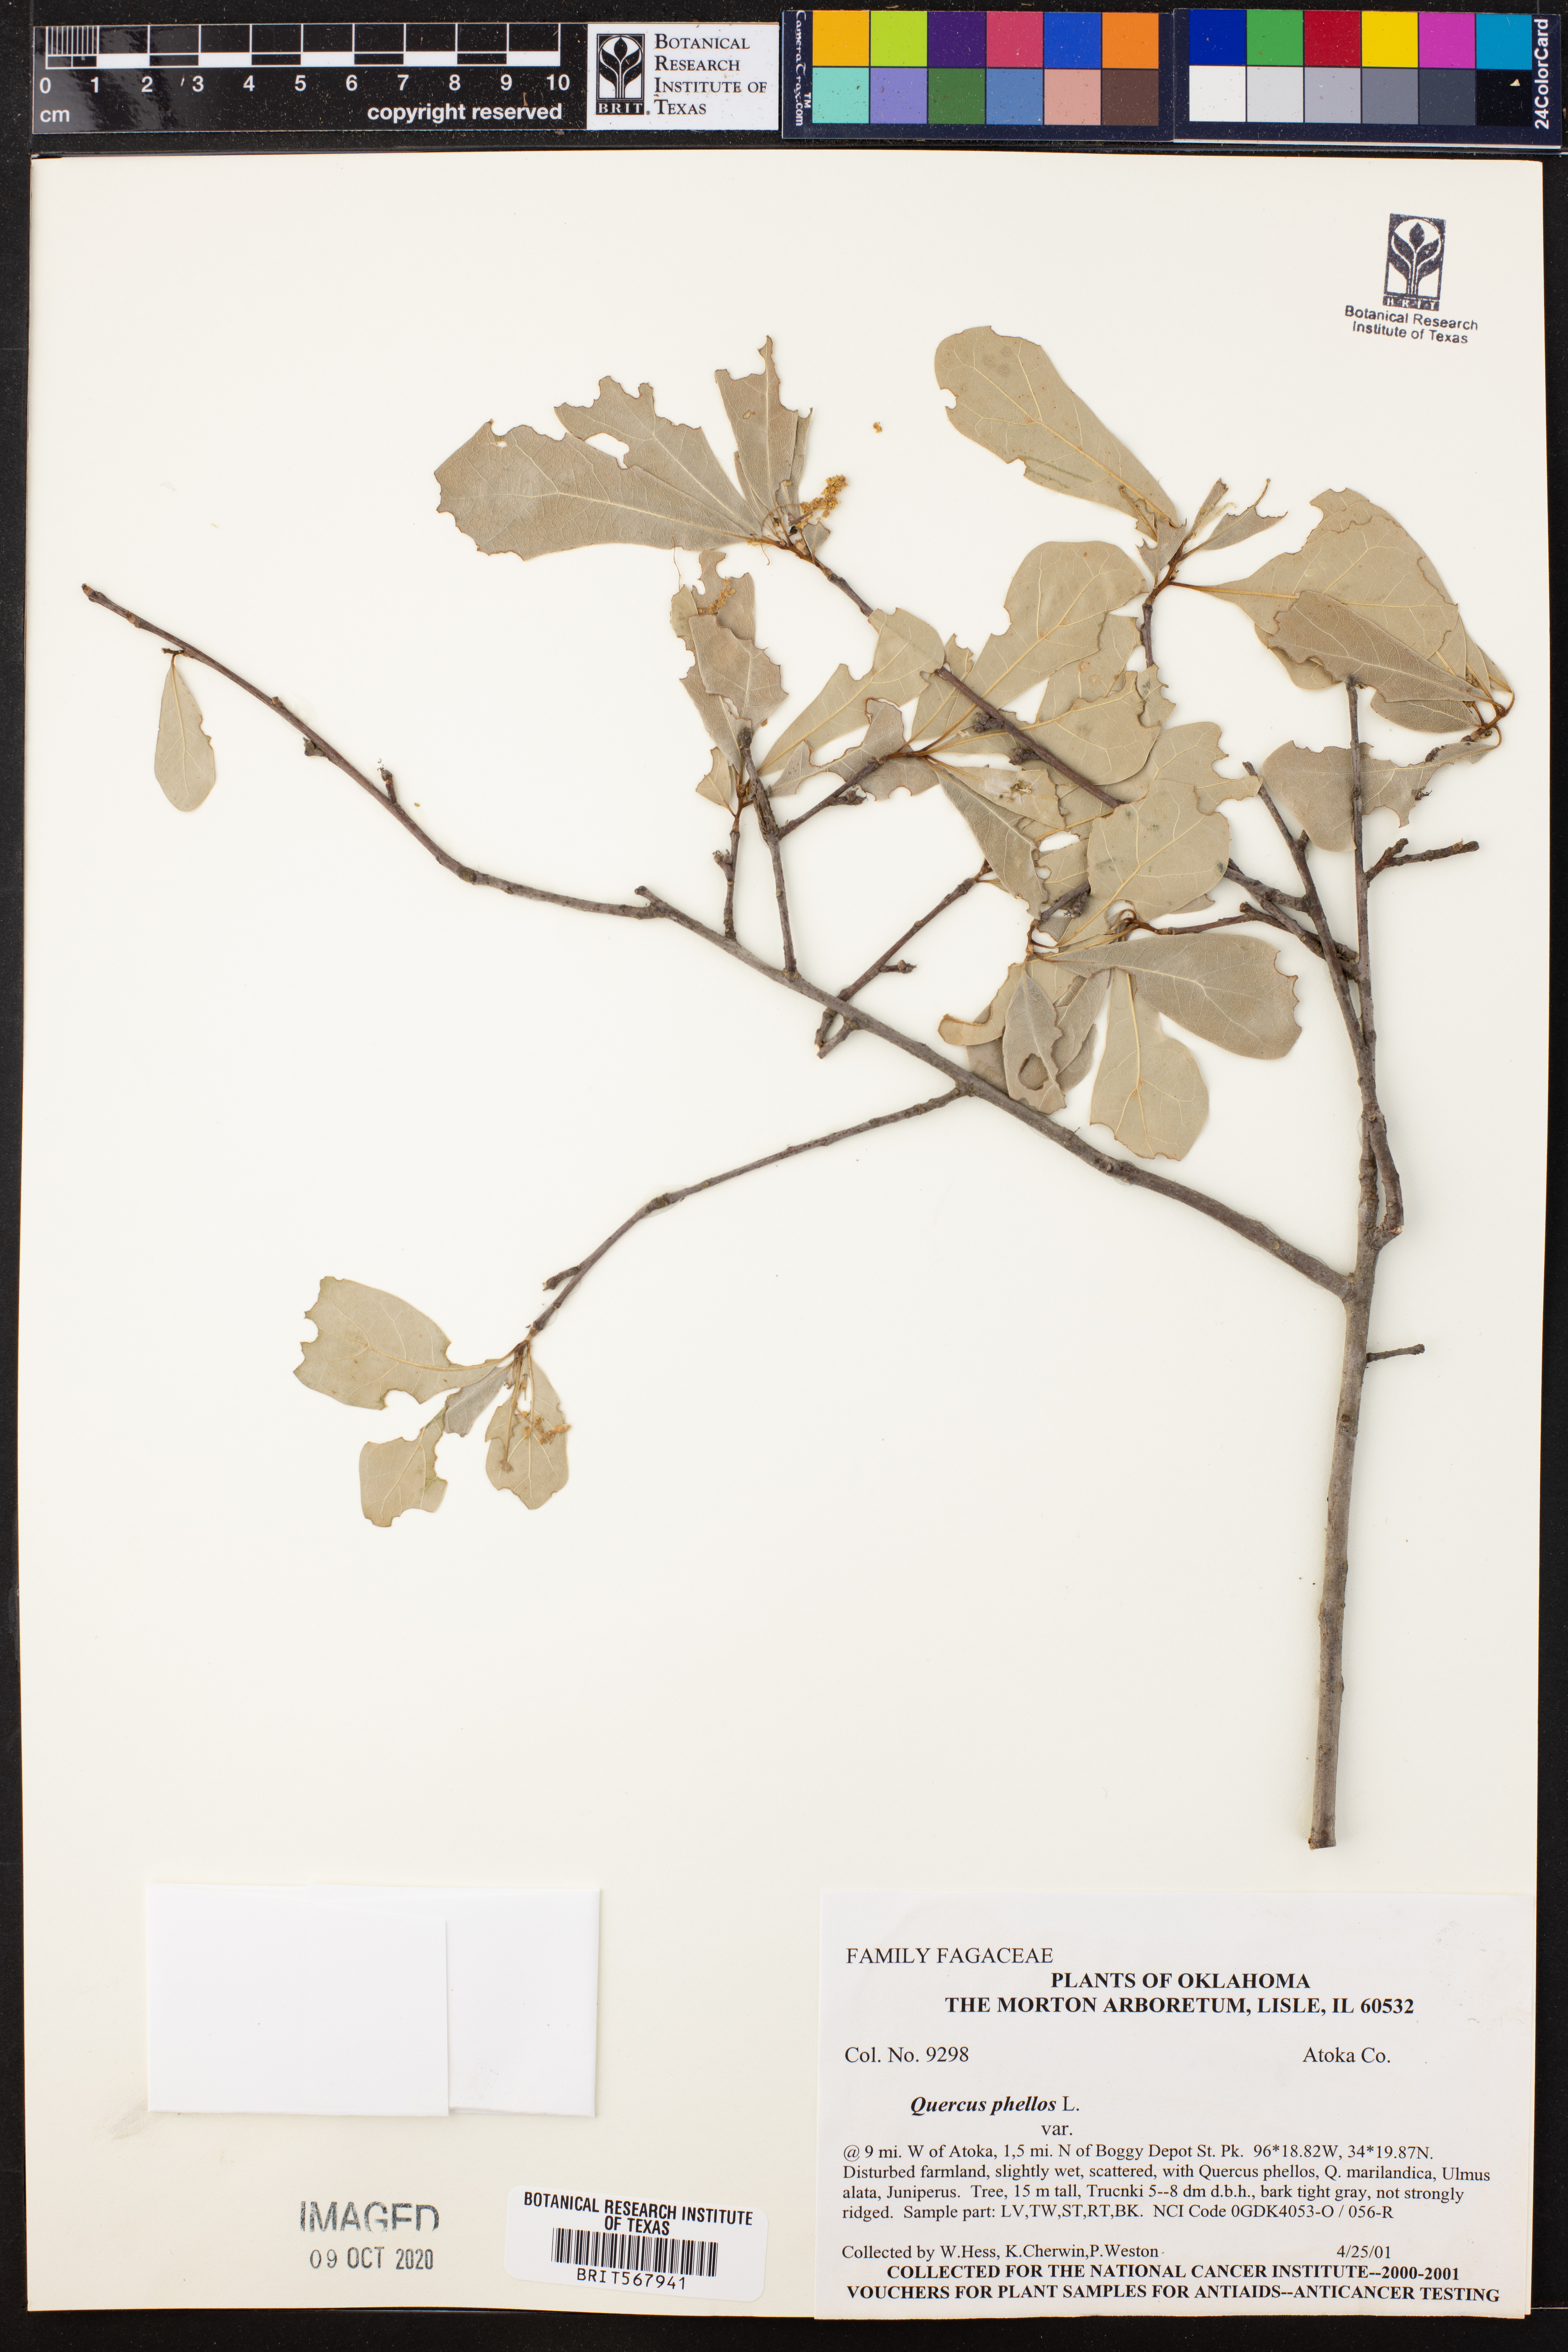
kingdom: Plantae
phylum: Tracheophyta
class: Magnoliopsida
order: Fagales
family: Fagaceae
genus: Quercus
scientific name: Quercus phellos
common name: Willow oak
